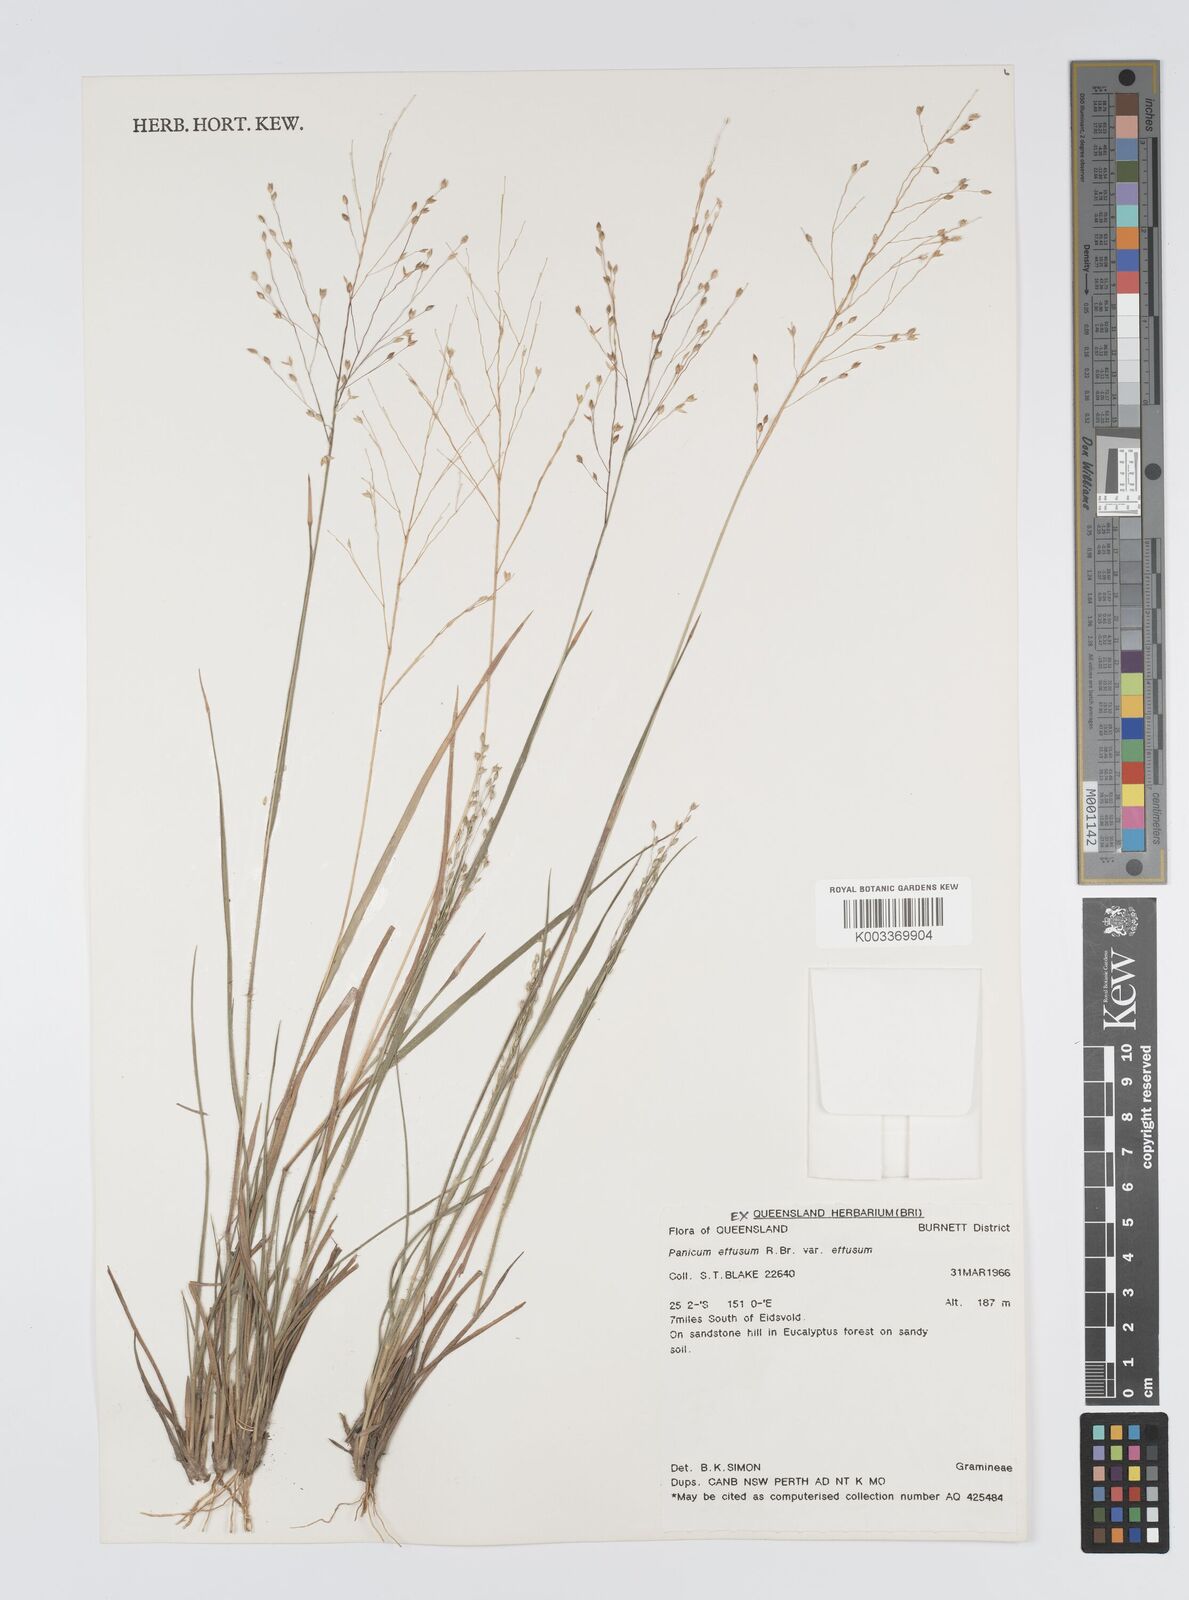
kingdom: Plantae
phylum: Tracheophyta
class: Liliopsida
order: Poales
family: Poaceae
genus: Panicum
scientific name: Panicum effusum
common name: Hairy panic grass
